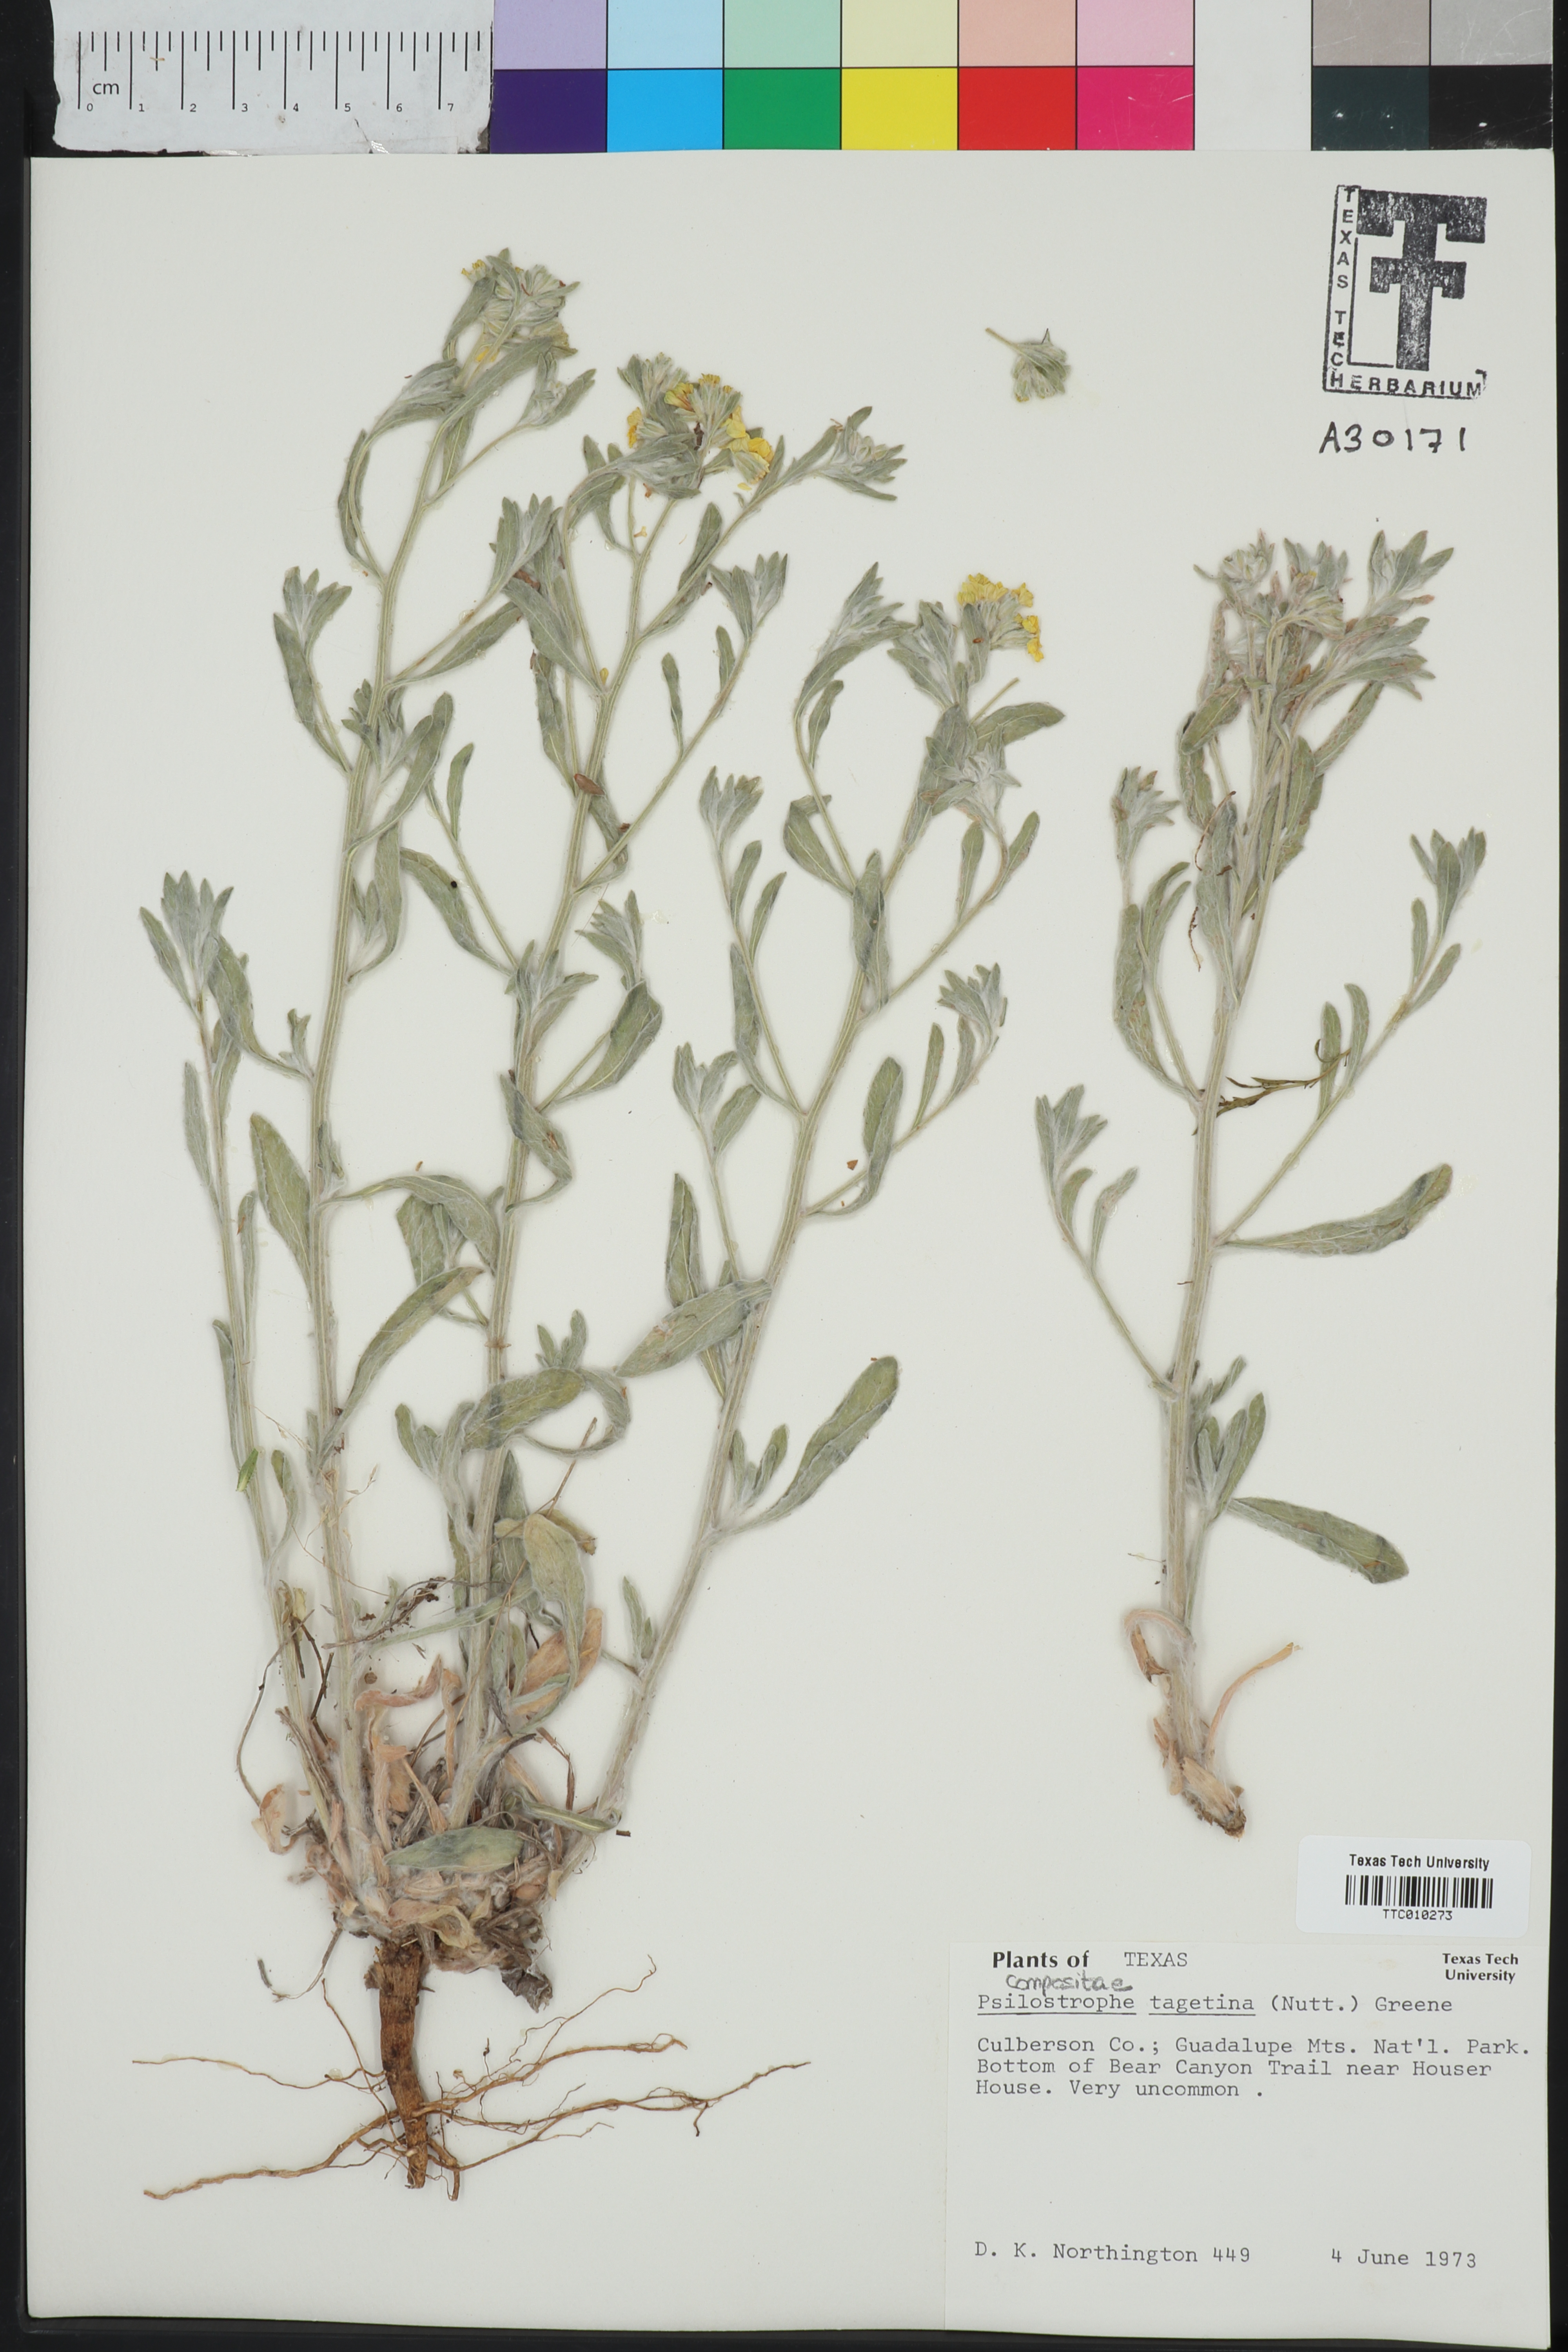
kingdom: Plantae
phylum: Tracheophyta
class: Magnoliopsida
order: Asterales
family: Asteraceae
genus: Psilostrophe
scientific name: Psilostrophe villosa
